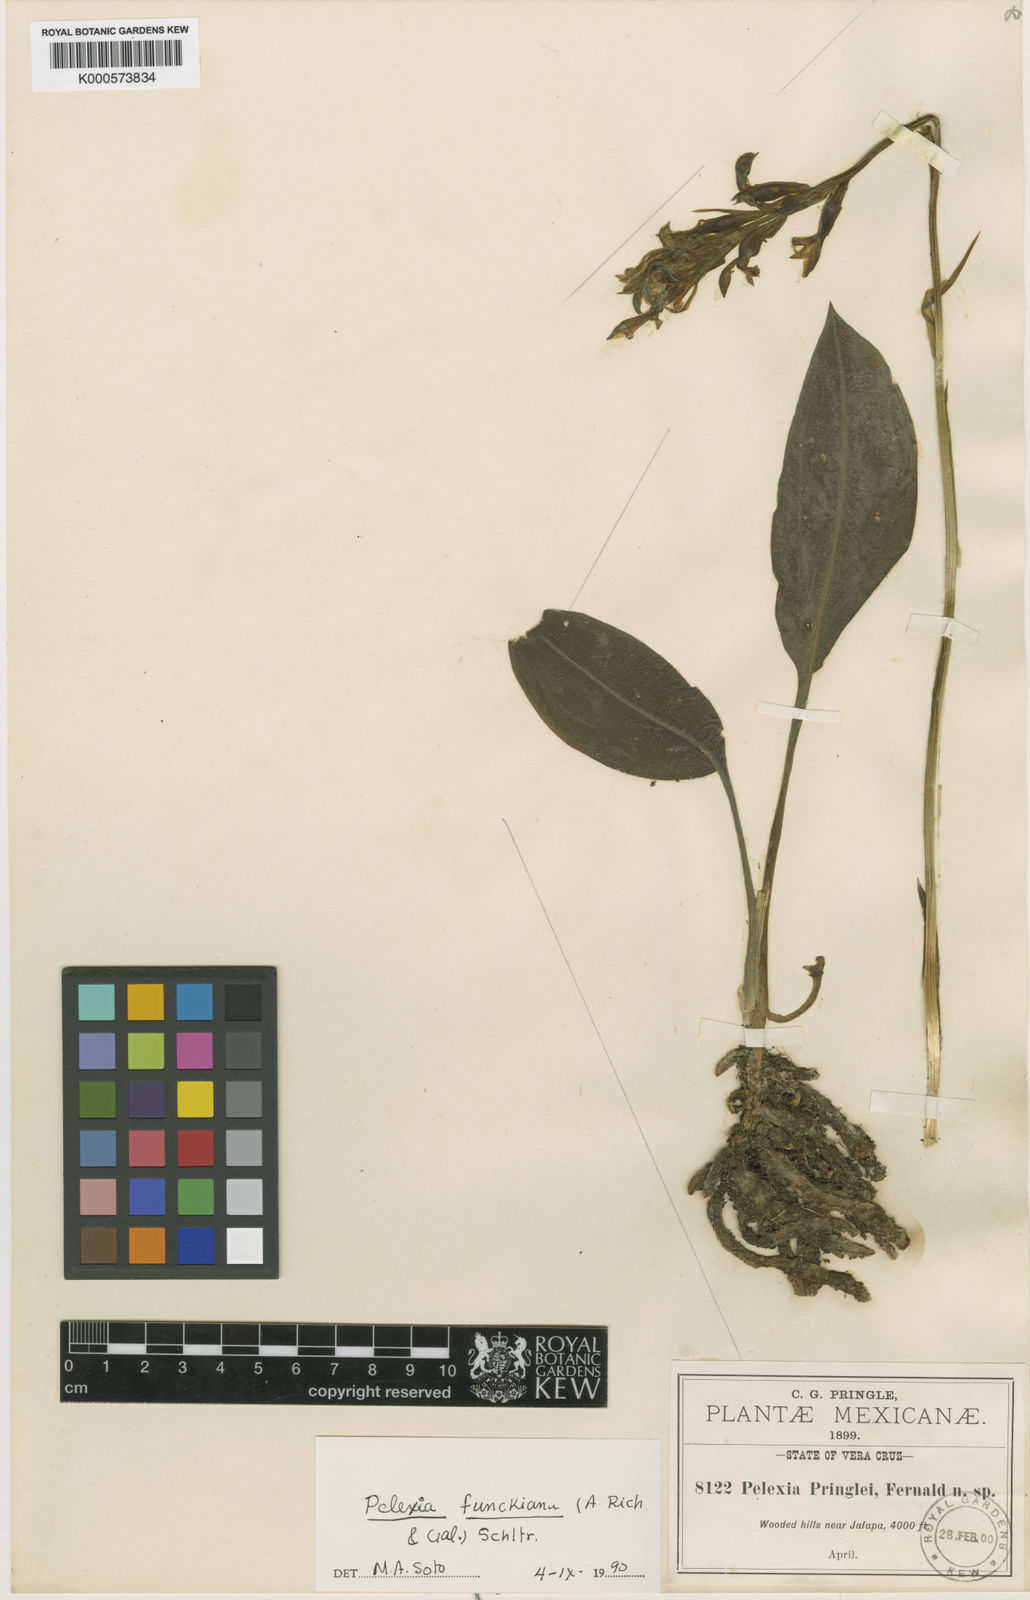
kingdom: Plantae
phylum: Tracheophyta
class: Liliopsida
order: Asparagales
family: Orchidaceae
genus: Pelexia
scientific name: Pelexia funckiana
